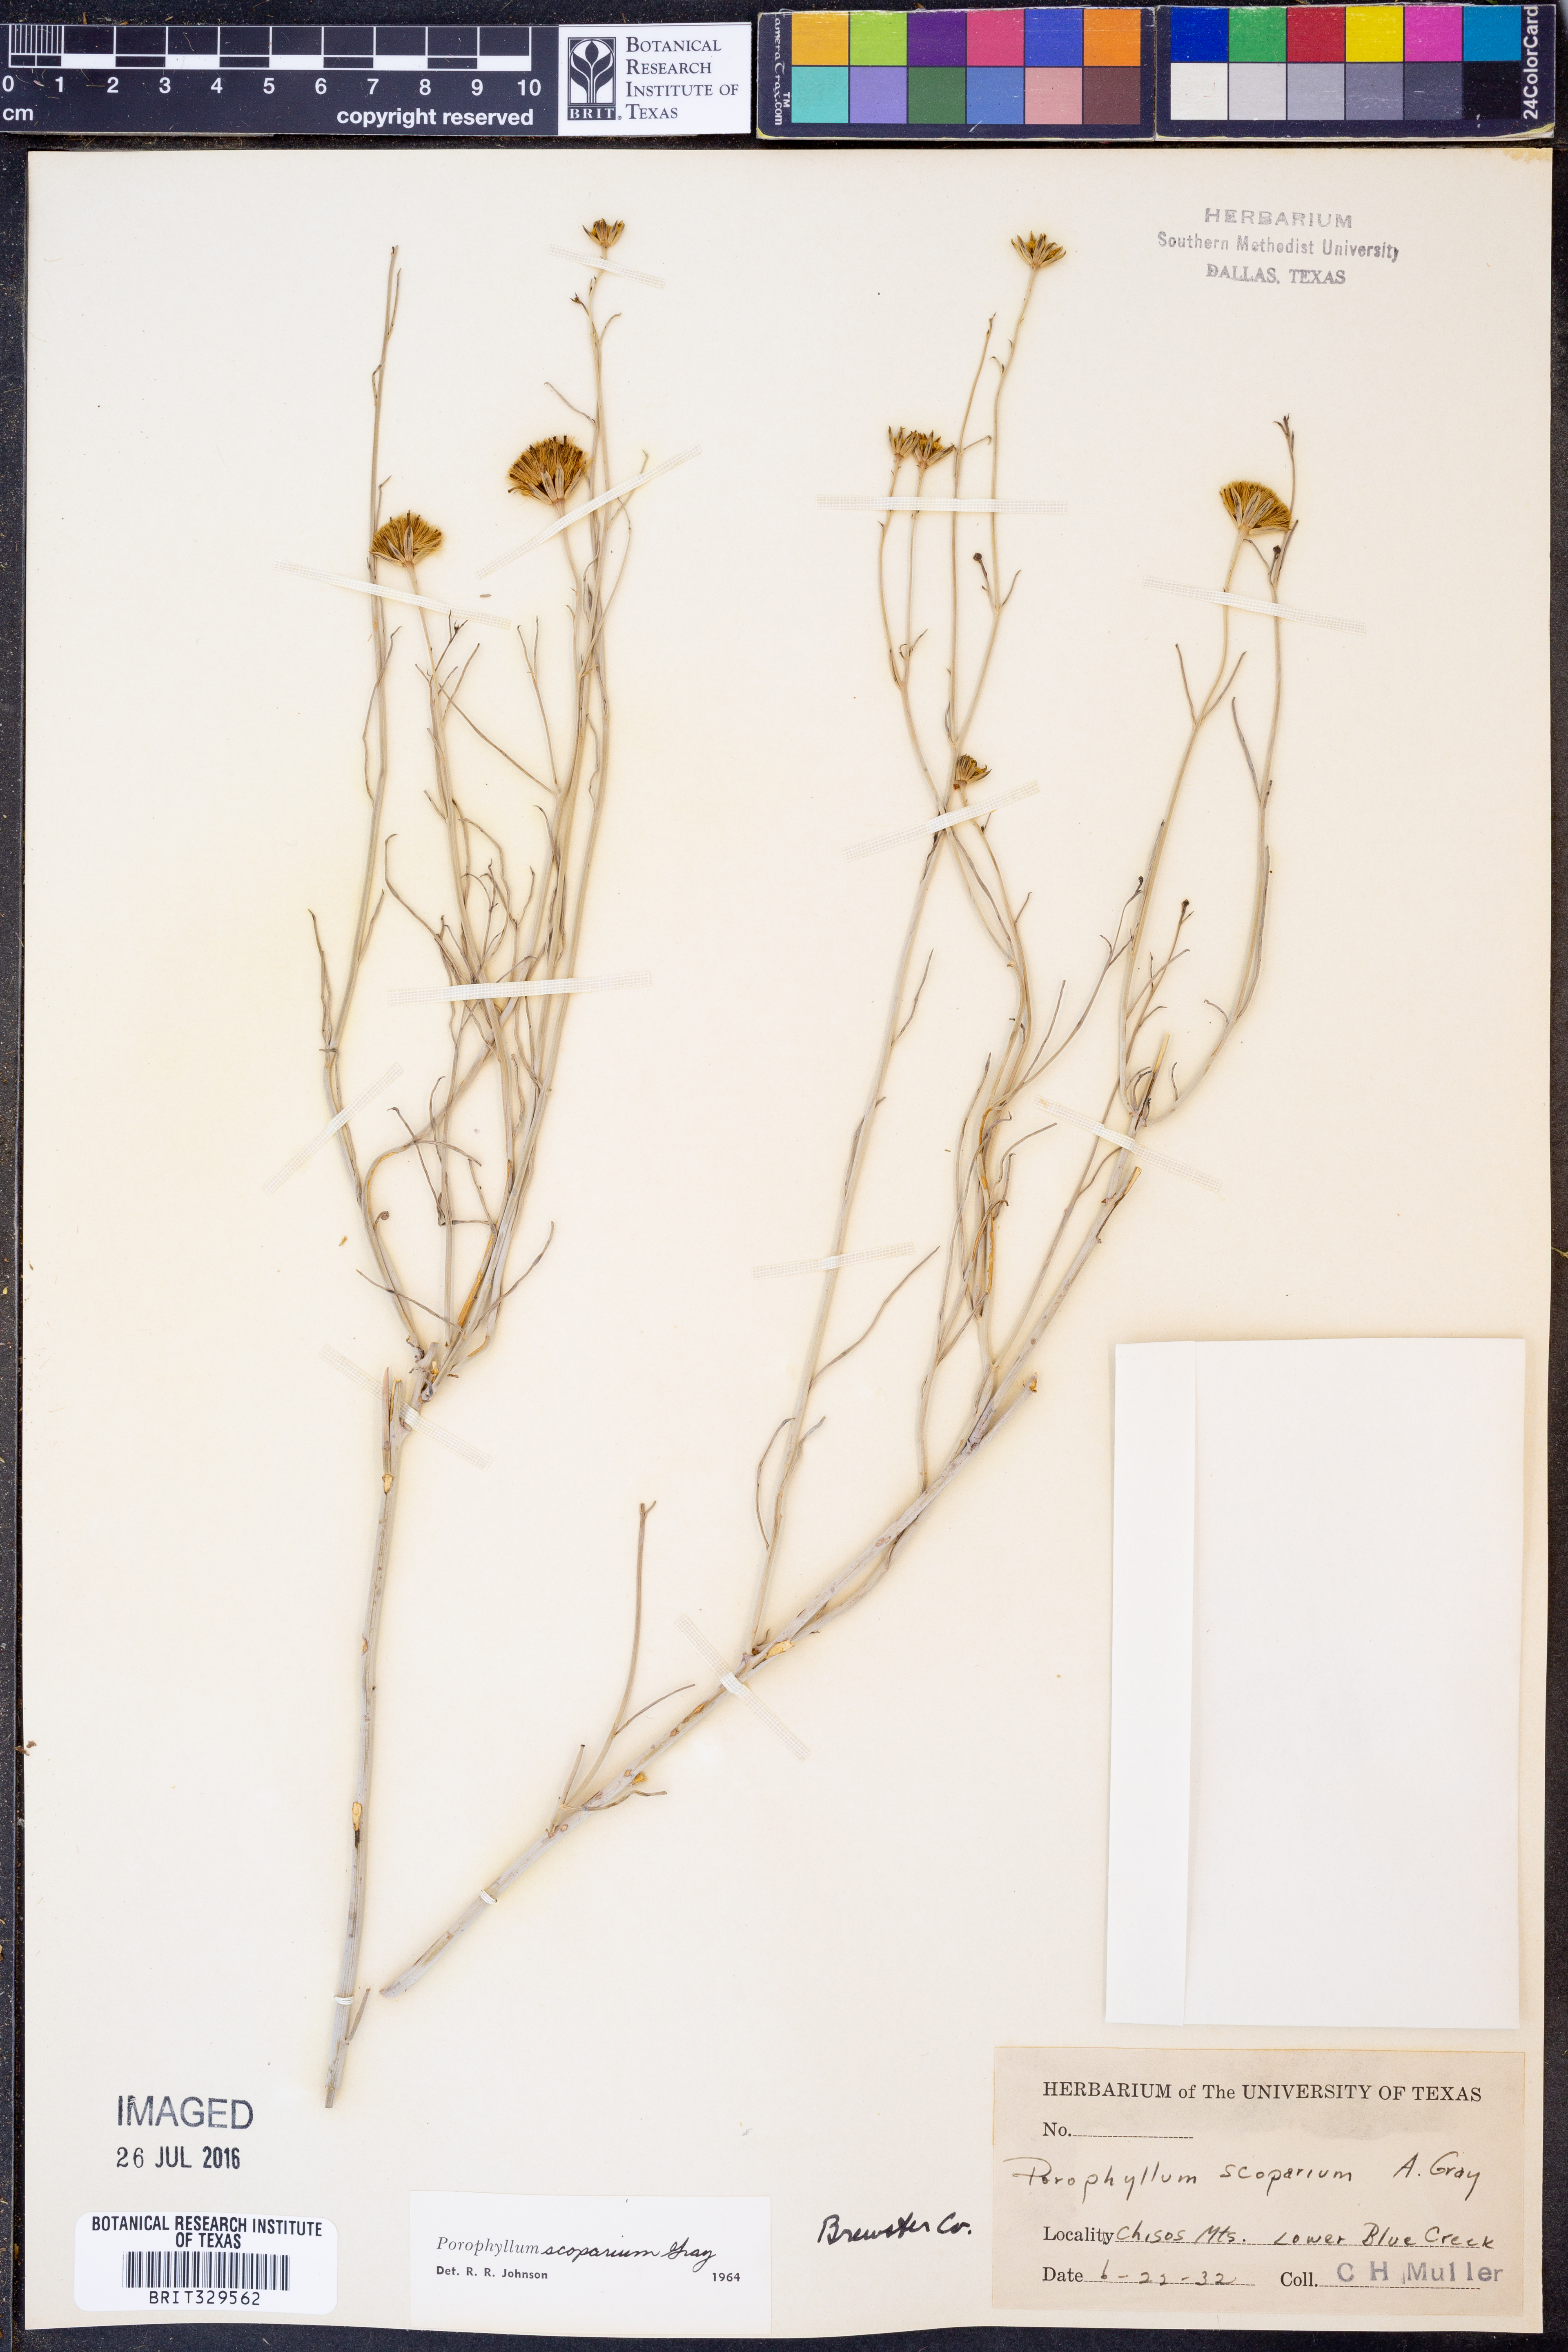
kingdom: Plantae
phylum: Tracheophyta
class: Magnoliopsida
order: Asterales
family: Asteraceae
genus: Porophyllum
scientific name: Porophyllum scoparium
